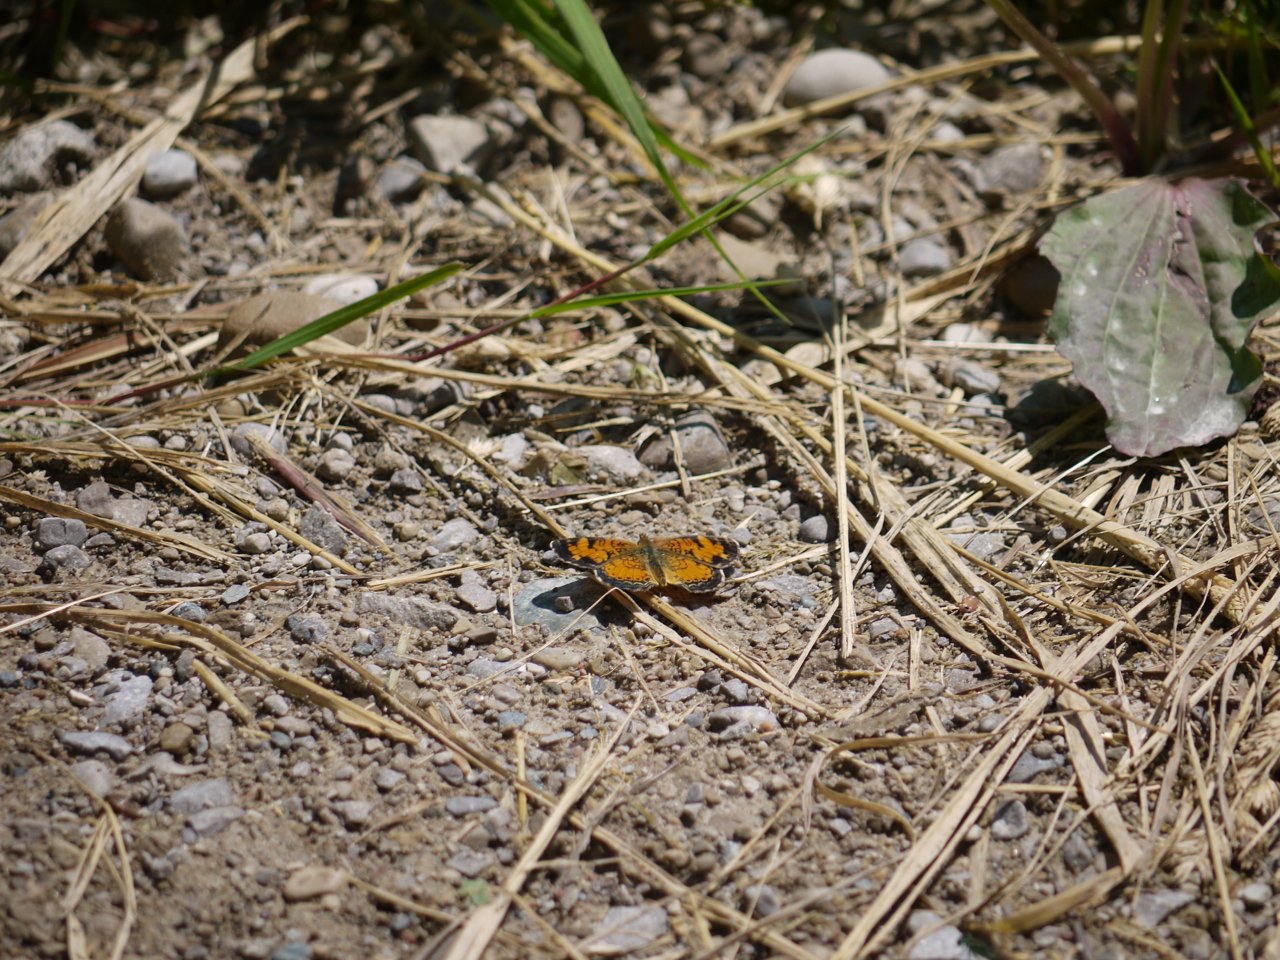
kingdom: Animalia
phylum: Arthropoda
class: Insecta
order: Lepidoptera
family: Nymphalidae
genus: Phyciodes
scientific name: Phyciodes tharos
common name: Northern Crescent
